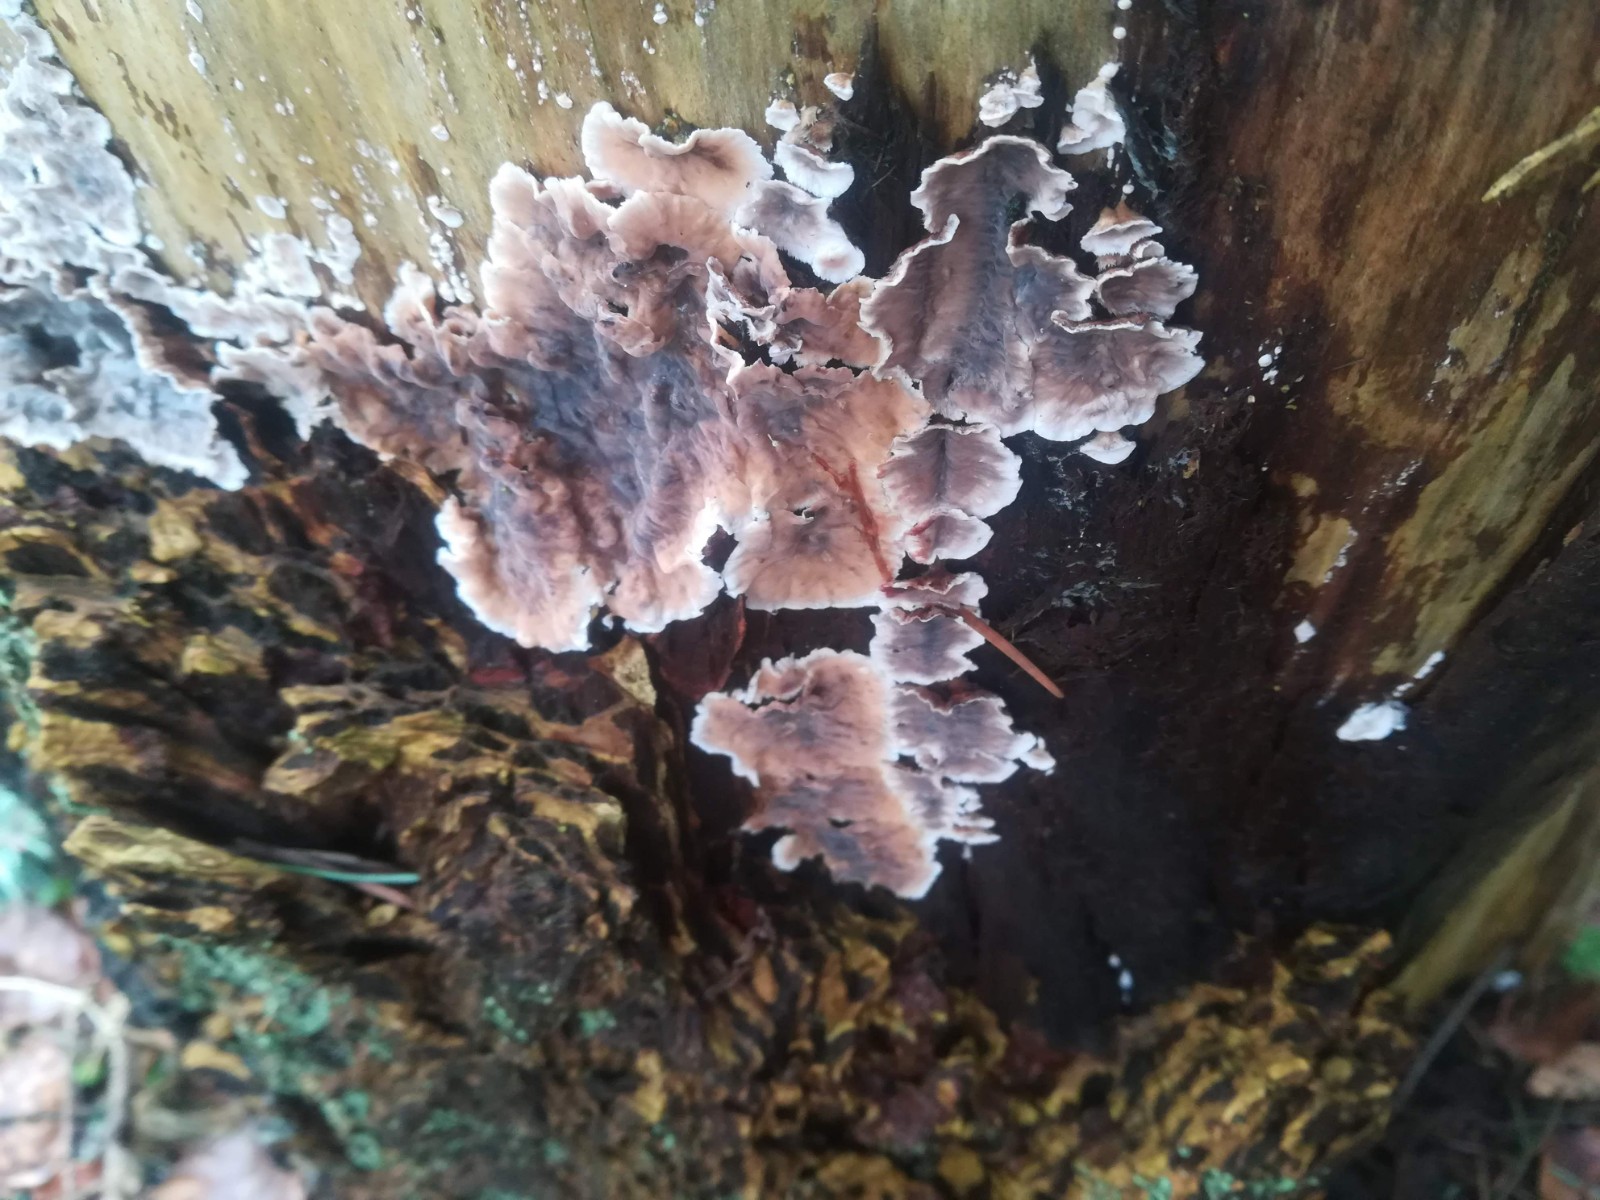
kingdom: Fungi
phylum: Basidiomycota
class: Agaricomycetes
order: Russulales
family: Stereaceae
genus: Stereum
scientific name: Stereum sanguinolentum
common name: blødende lædersvamp
